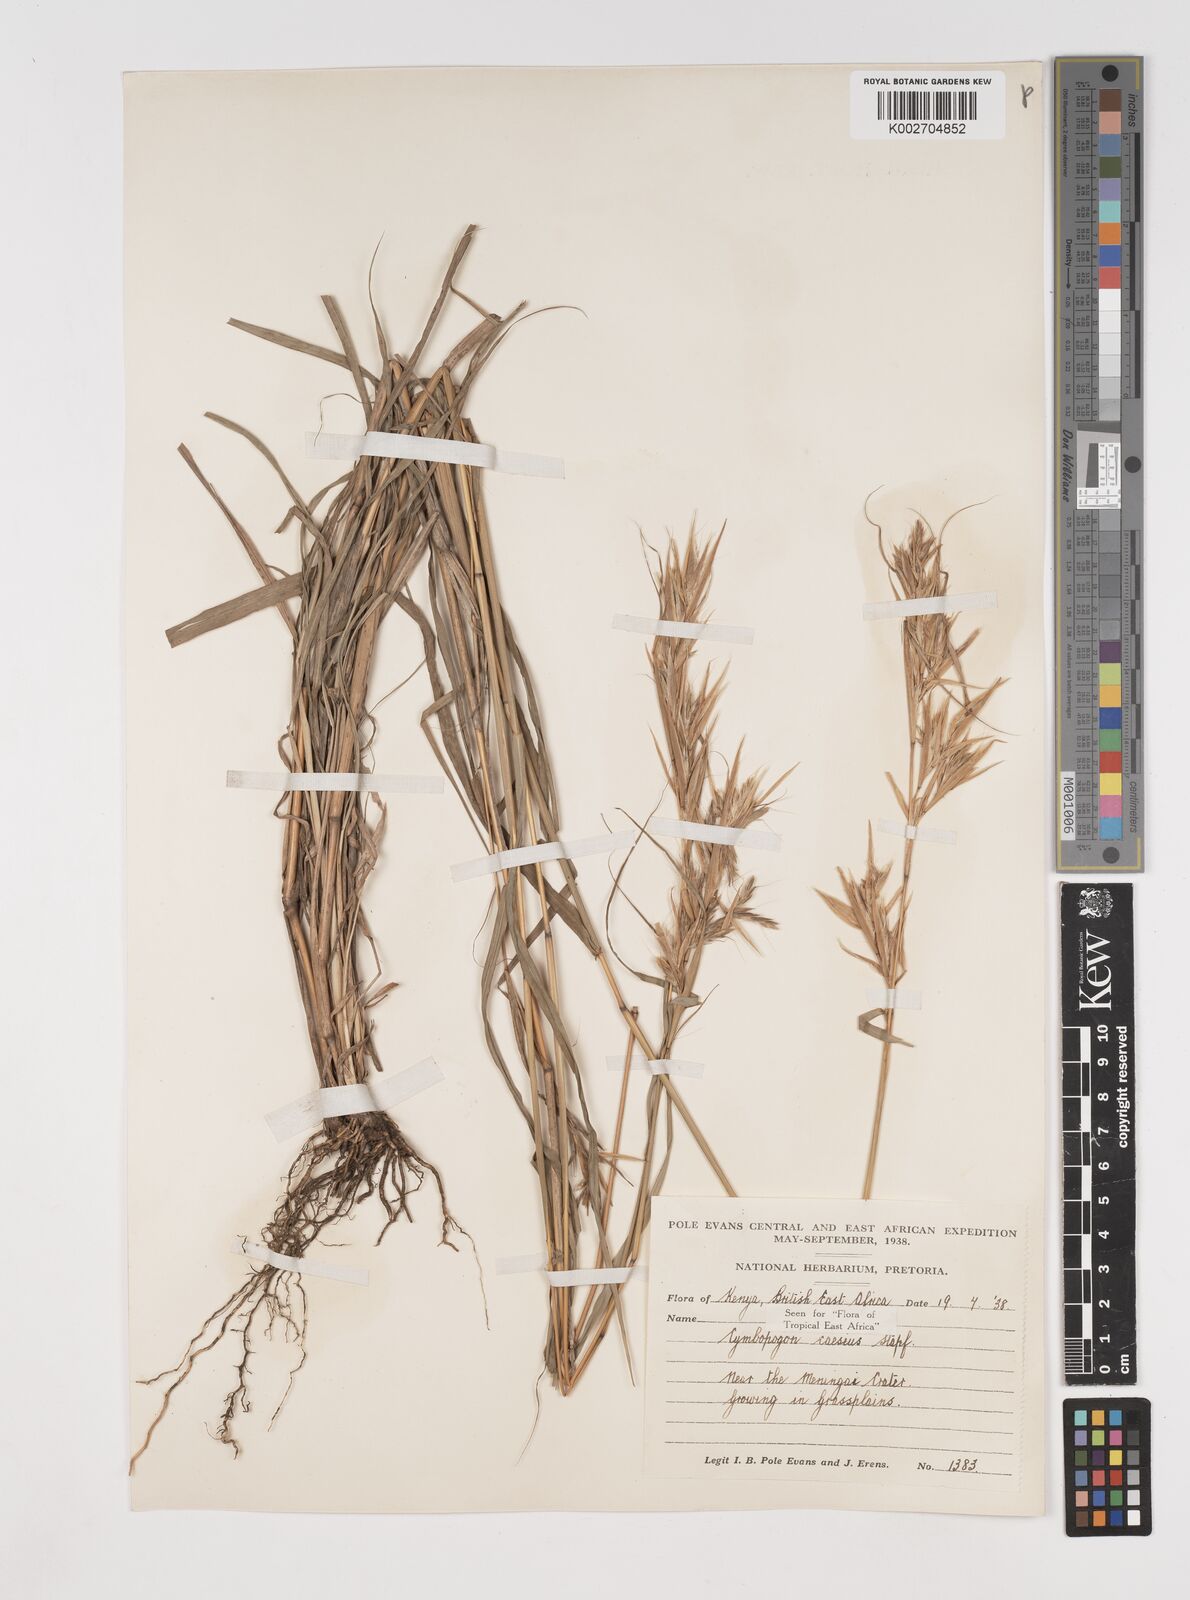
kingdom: Plantae
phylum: Tracheophyta
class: Liliopsida
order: Poales
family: Poaceae
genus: Cymbopogon
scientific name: Cymbopogon caesius
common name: Kachi grass
